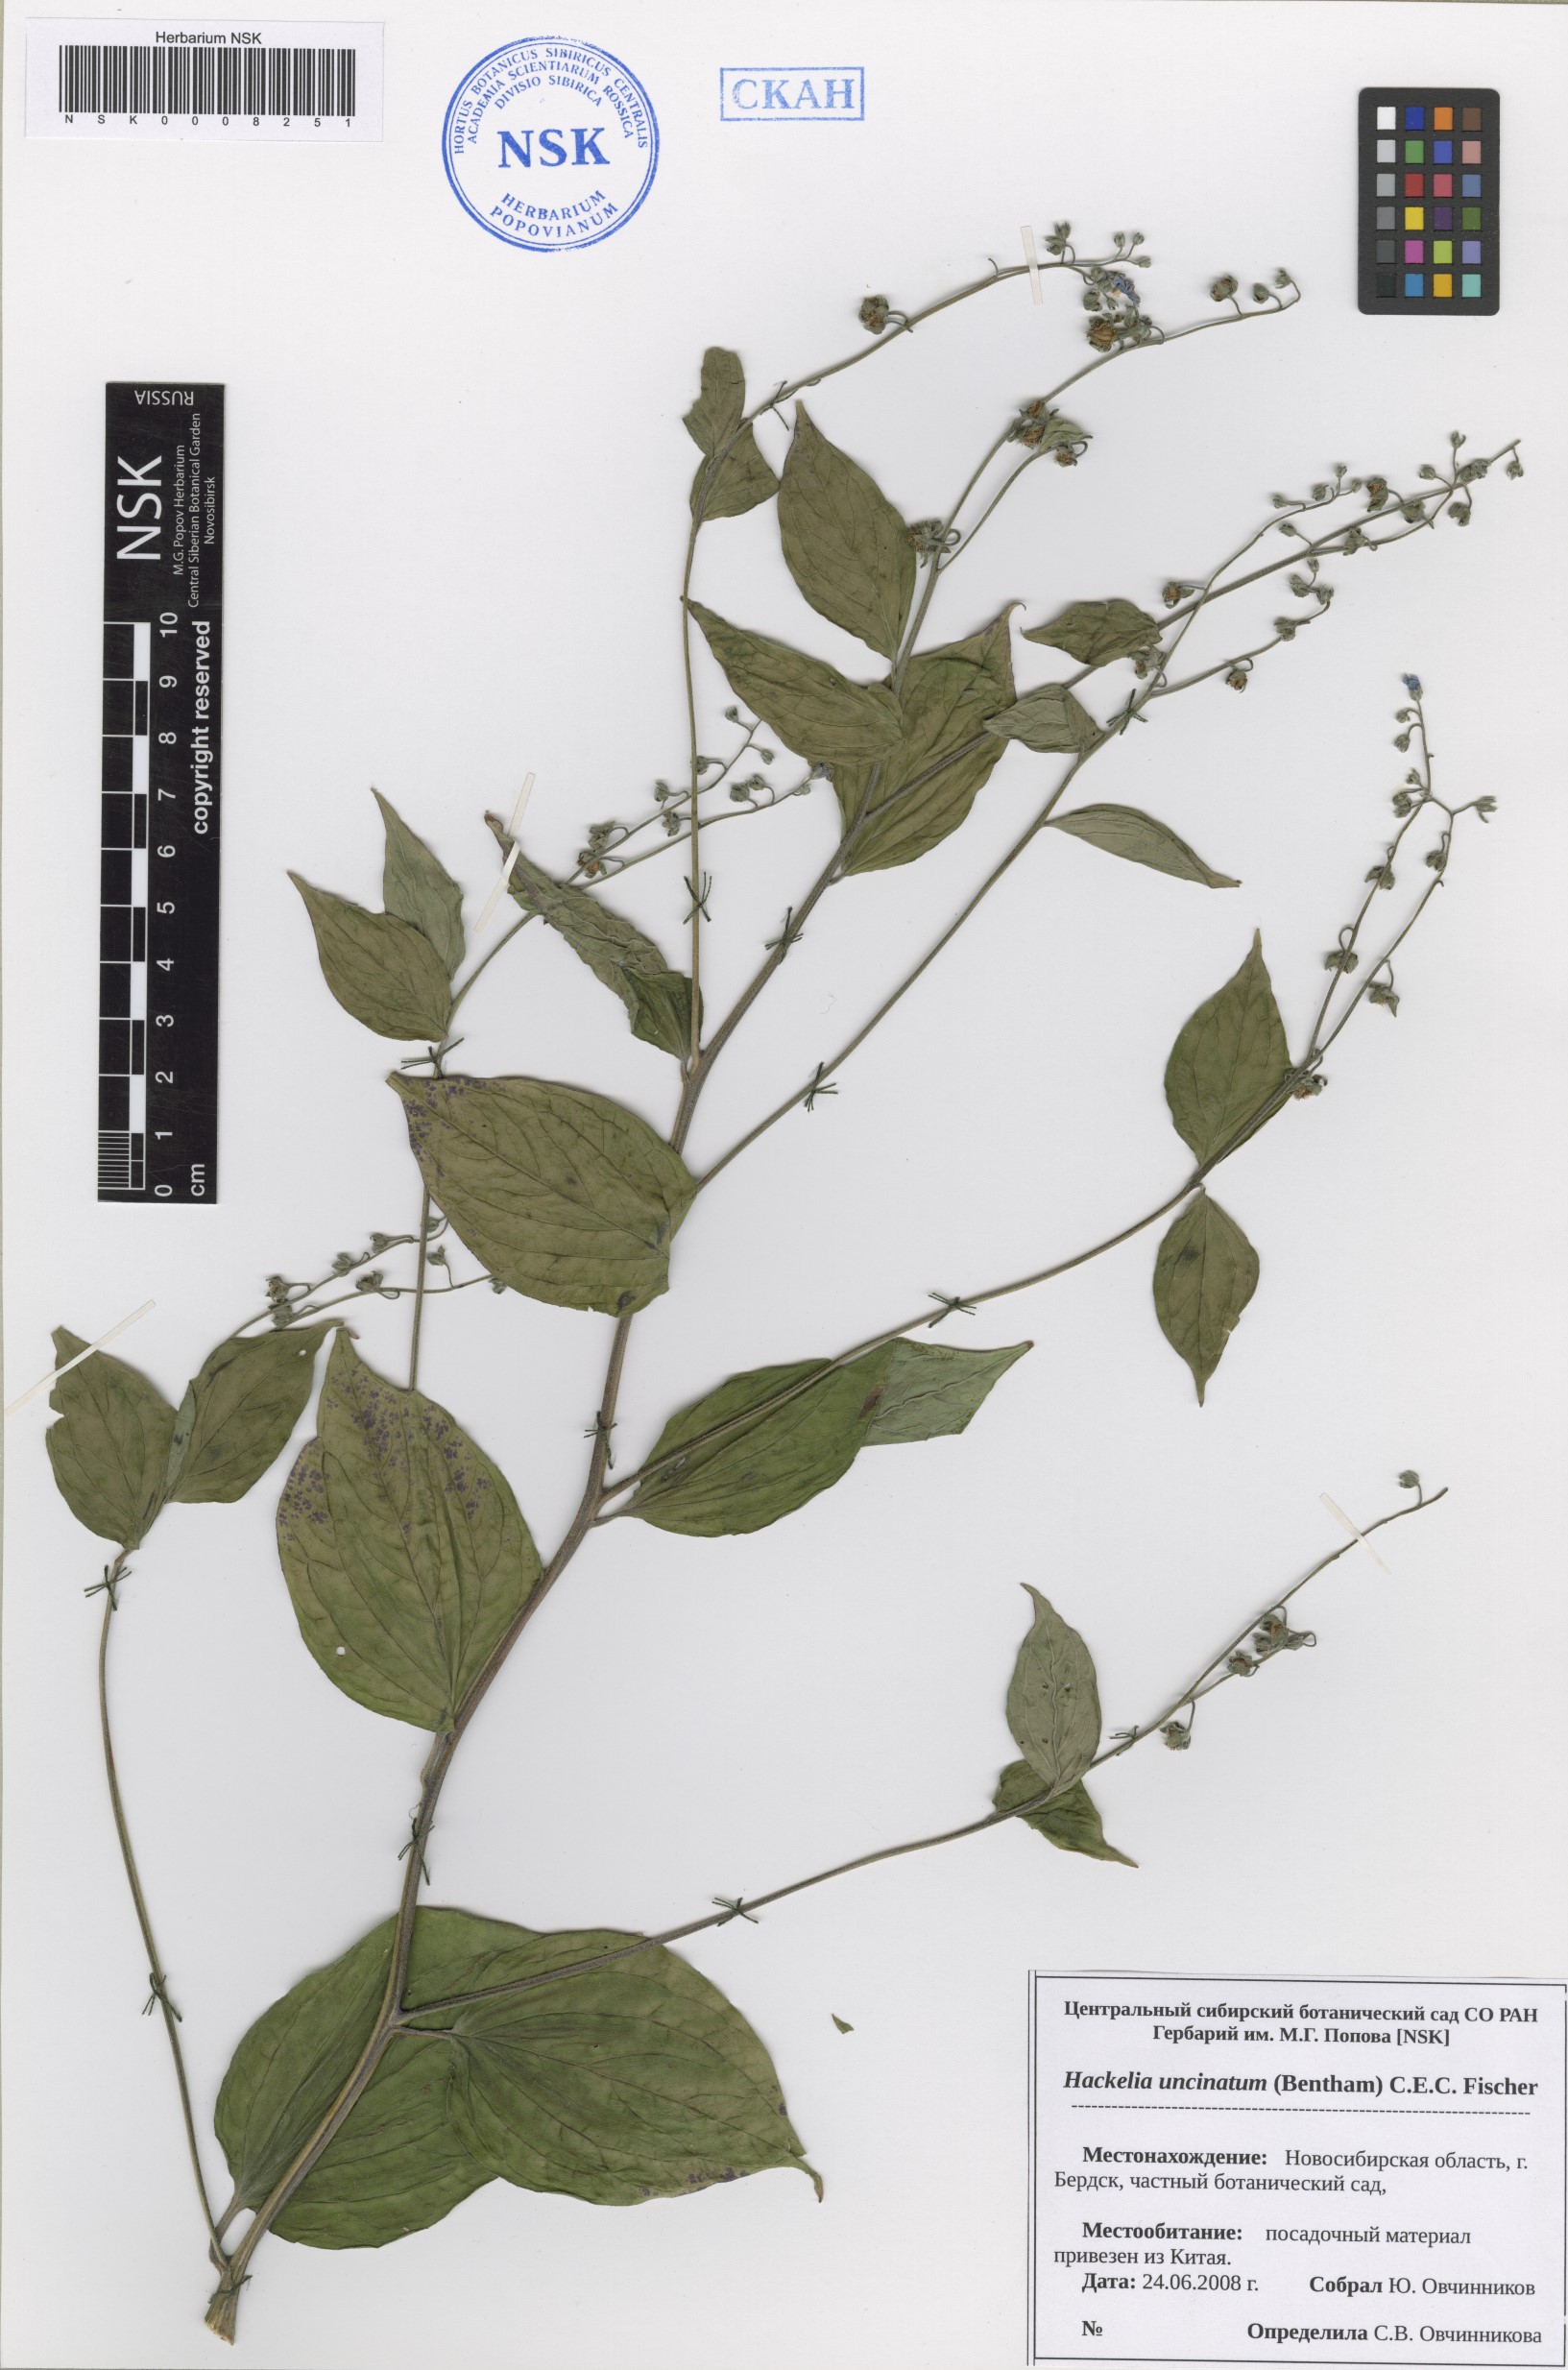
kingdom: Plantae
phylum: Tracheophyta
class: Magnoliopsida
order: Boraginales
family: Boraginaceae
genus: Hackelia
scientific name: Hackelia uncinata
